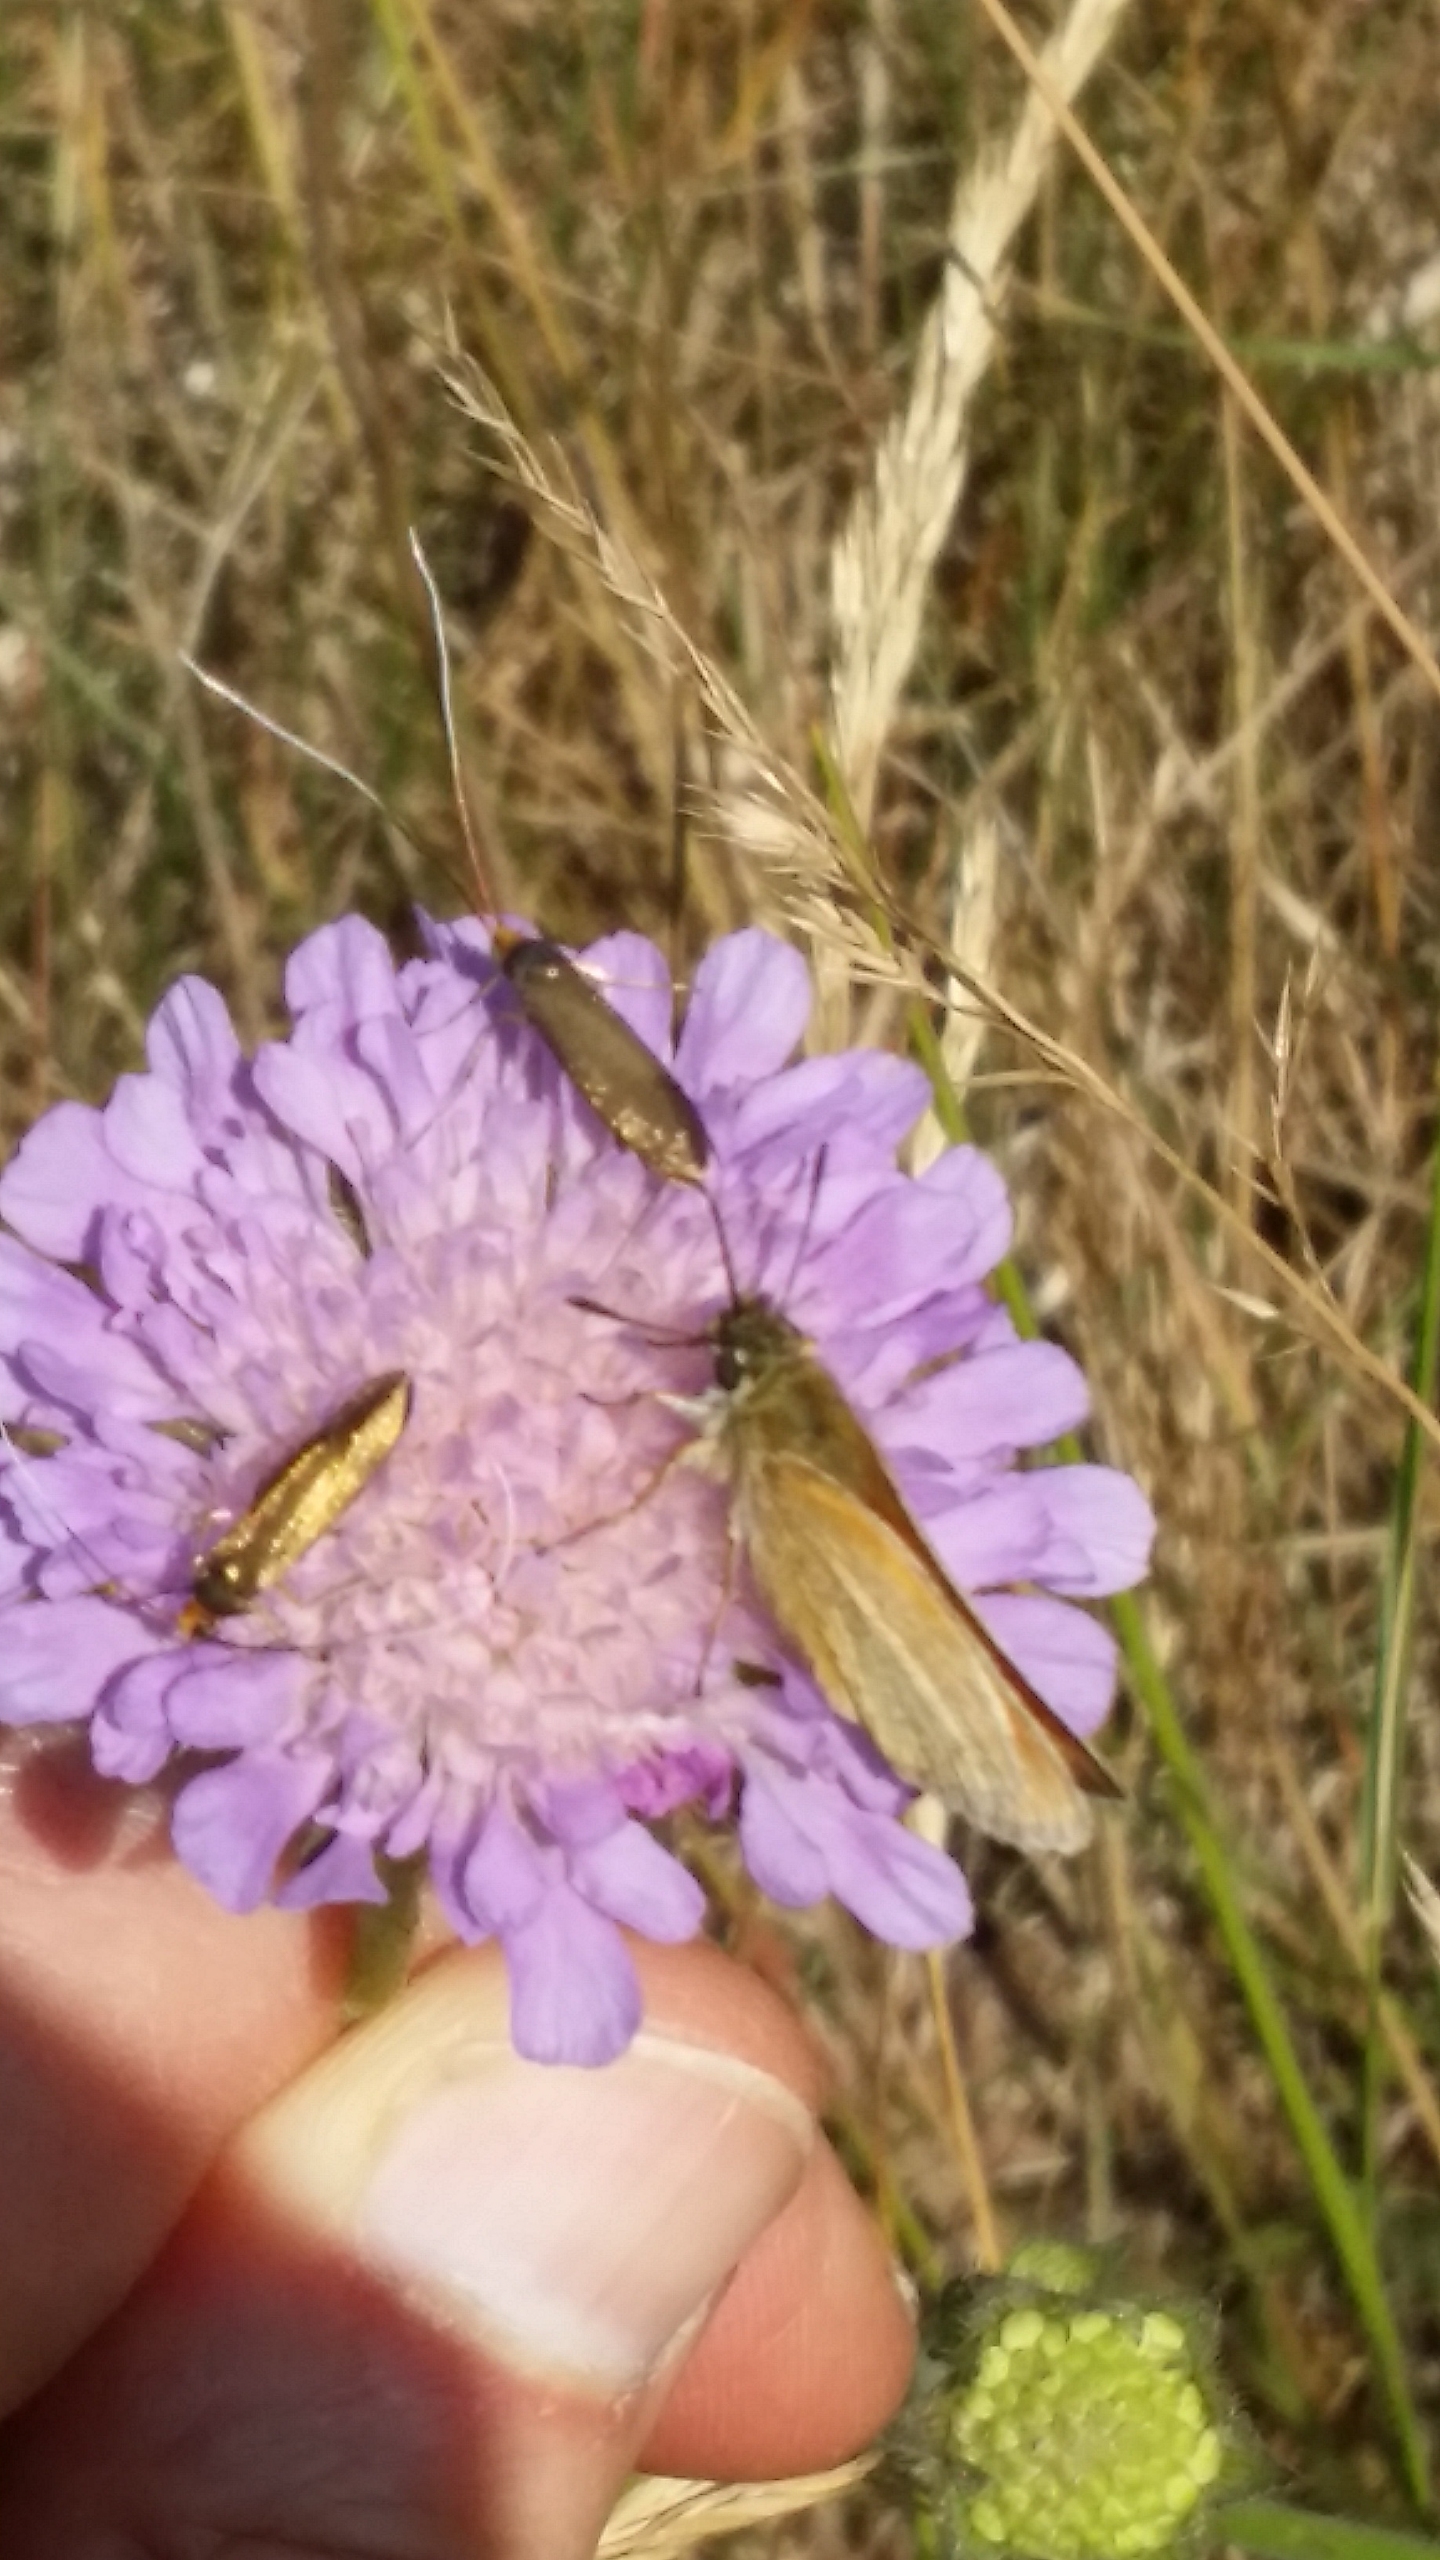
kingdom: Animalia
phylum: Arthropoda
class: Insecta
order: Lepidoptera
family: Adelidae
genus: Nemophora
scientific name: Nemophora cupriacella
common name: Blåhatlanghornsmøl
